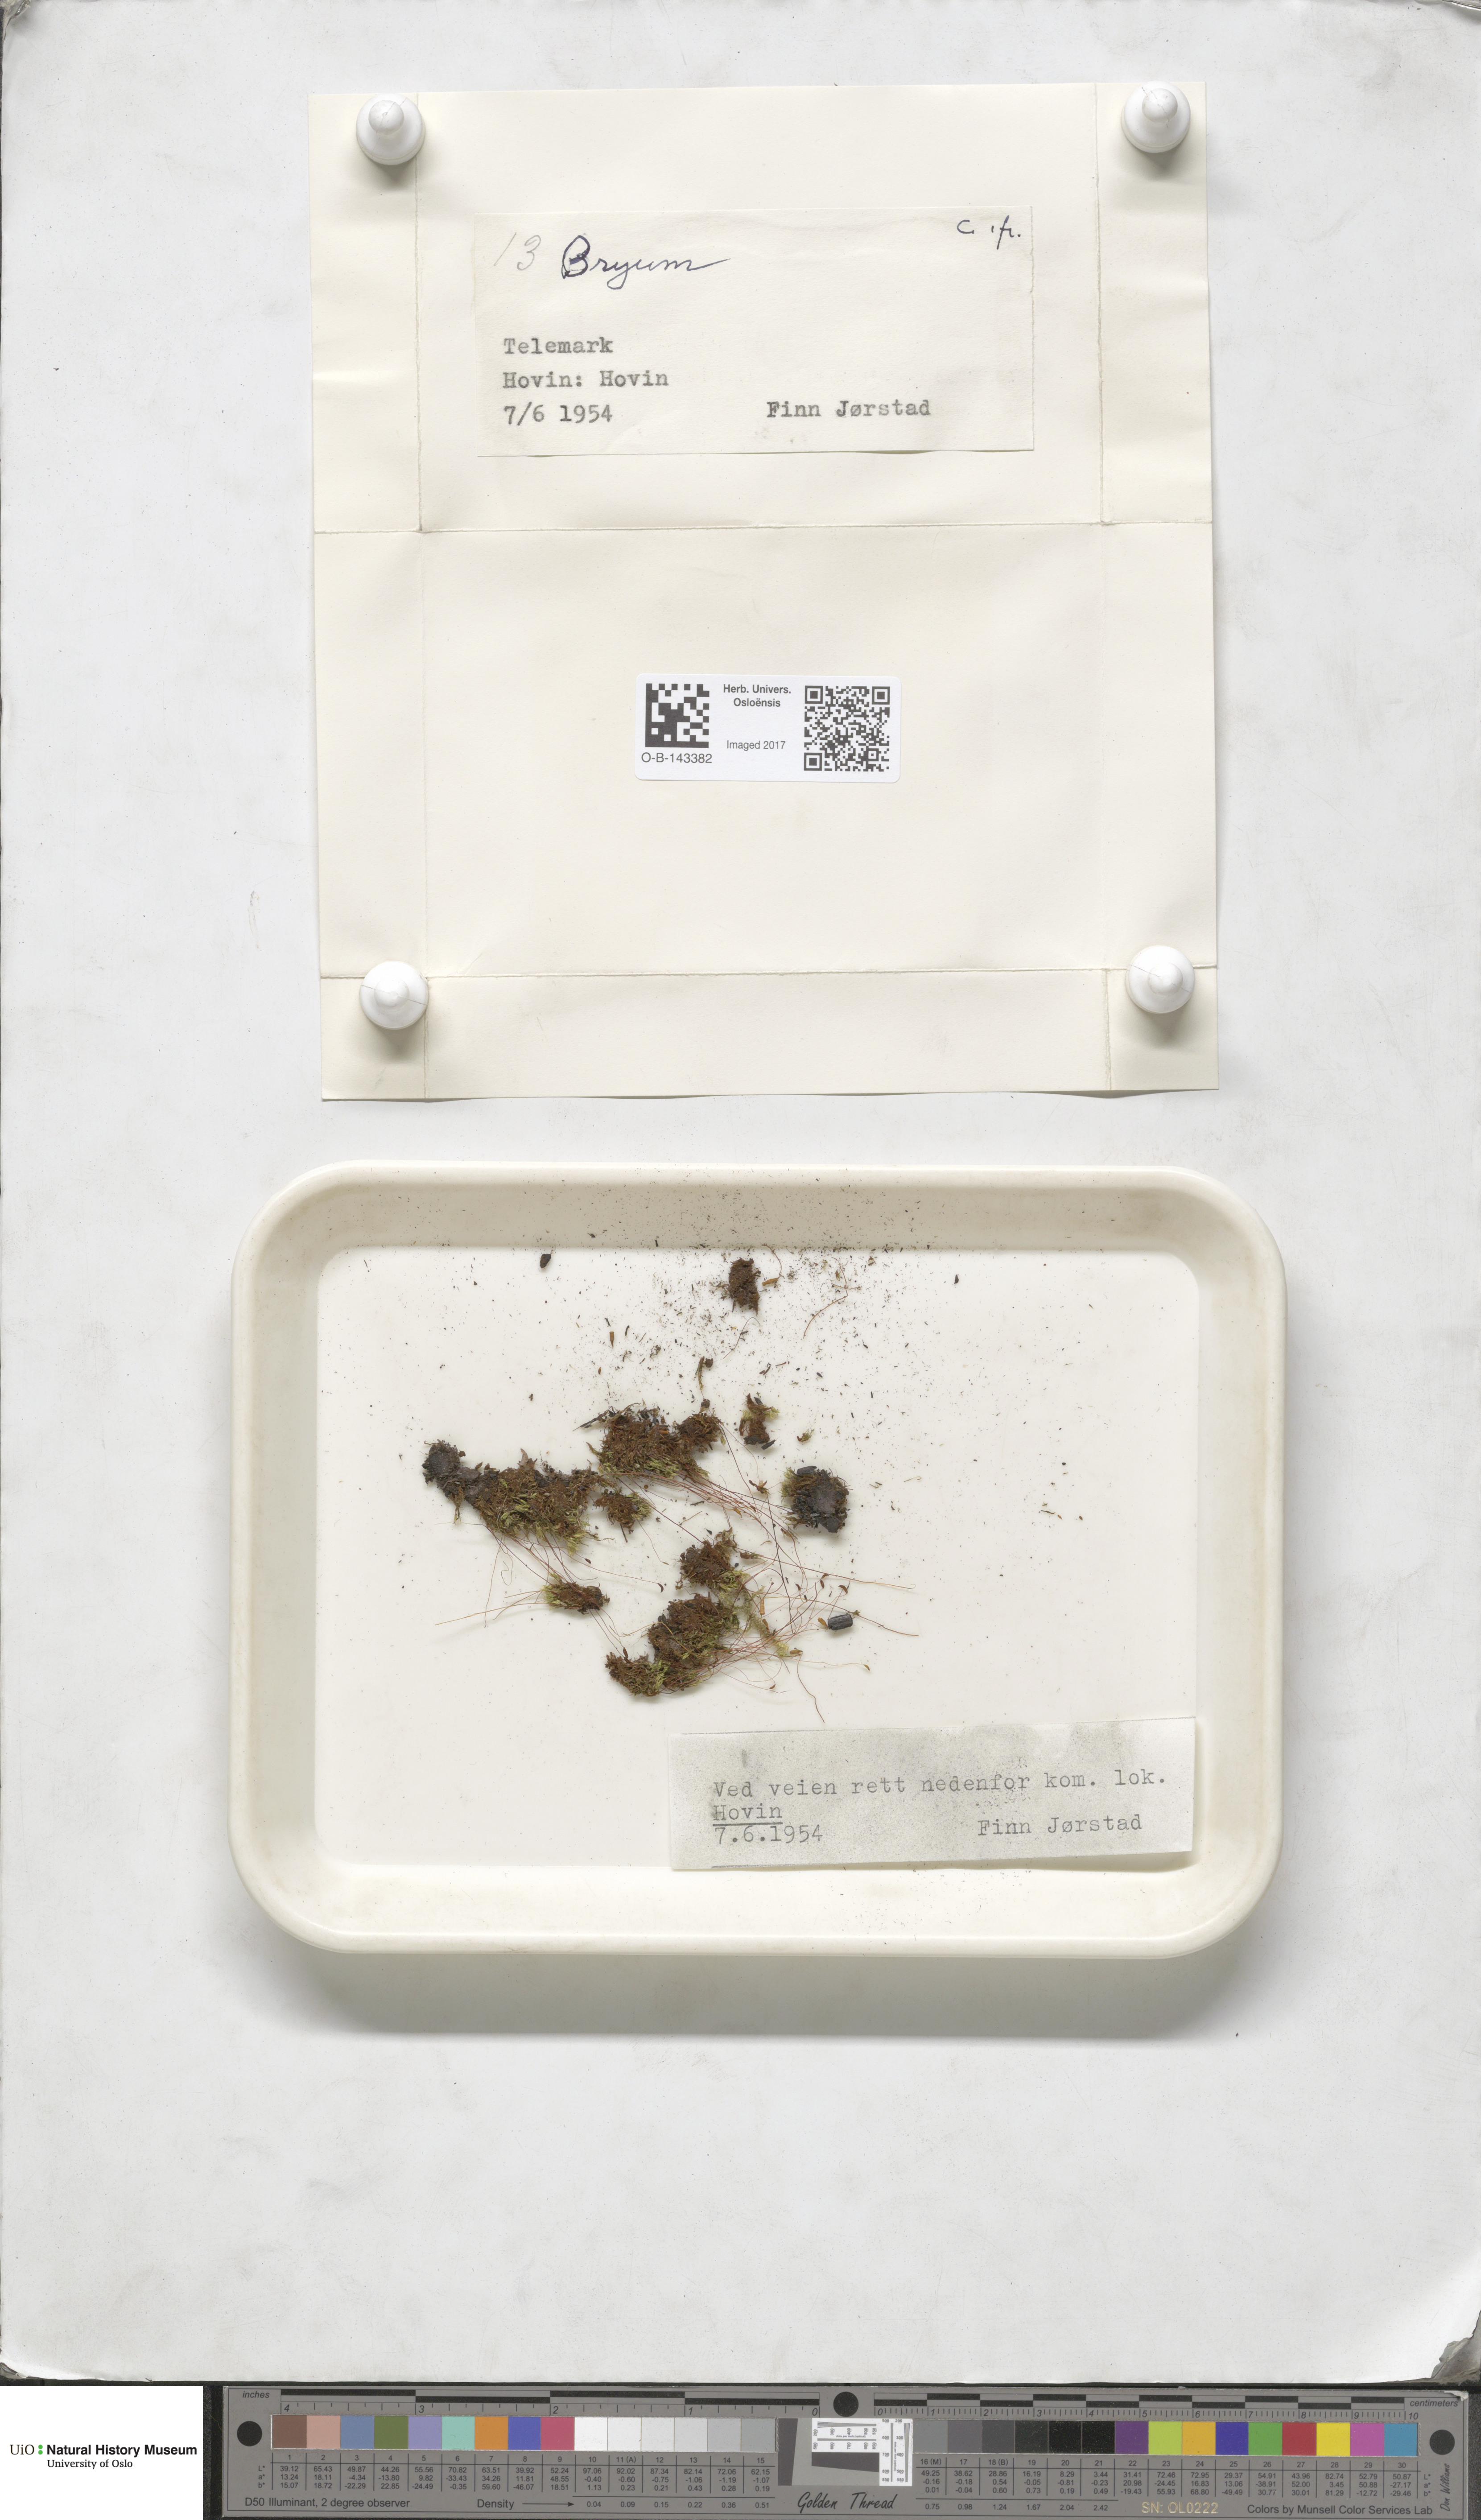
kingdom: Plantae
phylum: Bryophyta
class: Bryopsida
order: Bryales
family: Bryaceae
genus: Bryum
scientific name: Bryum
